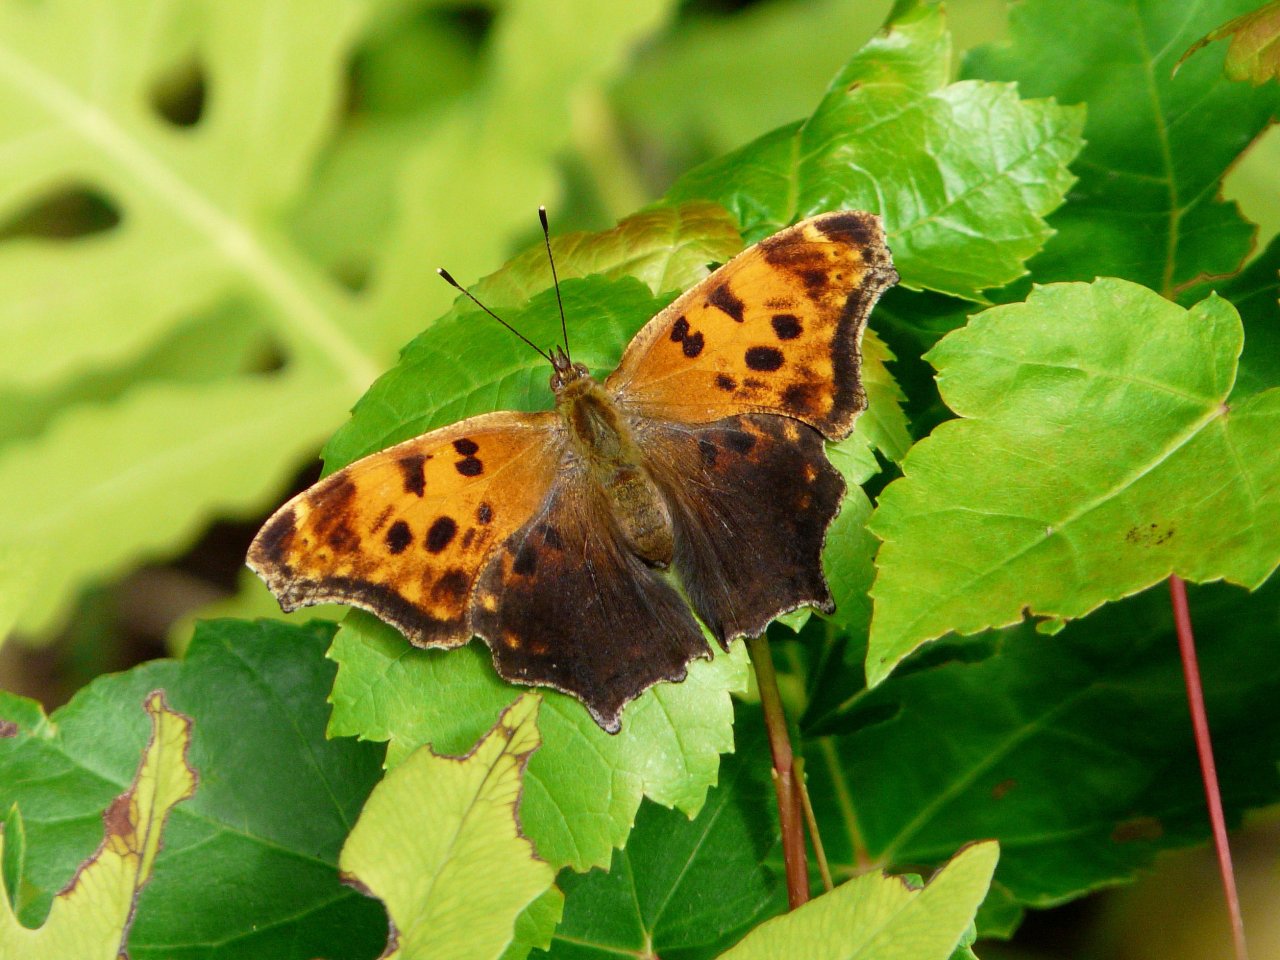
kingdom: Animalia
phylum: Arthropoda
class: Insecta
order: Lepidoptera
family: Nymphalidae
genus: Polygonia
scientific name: Polygonia comma
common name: Eastern Comma
